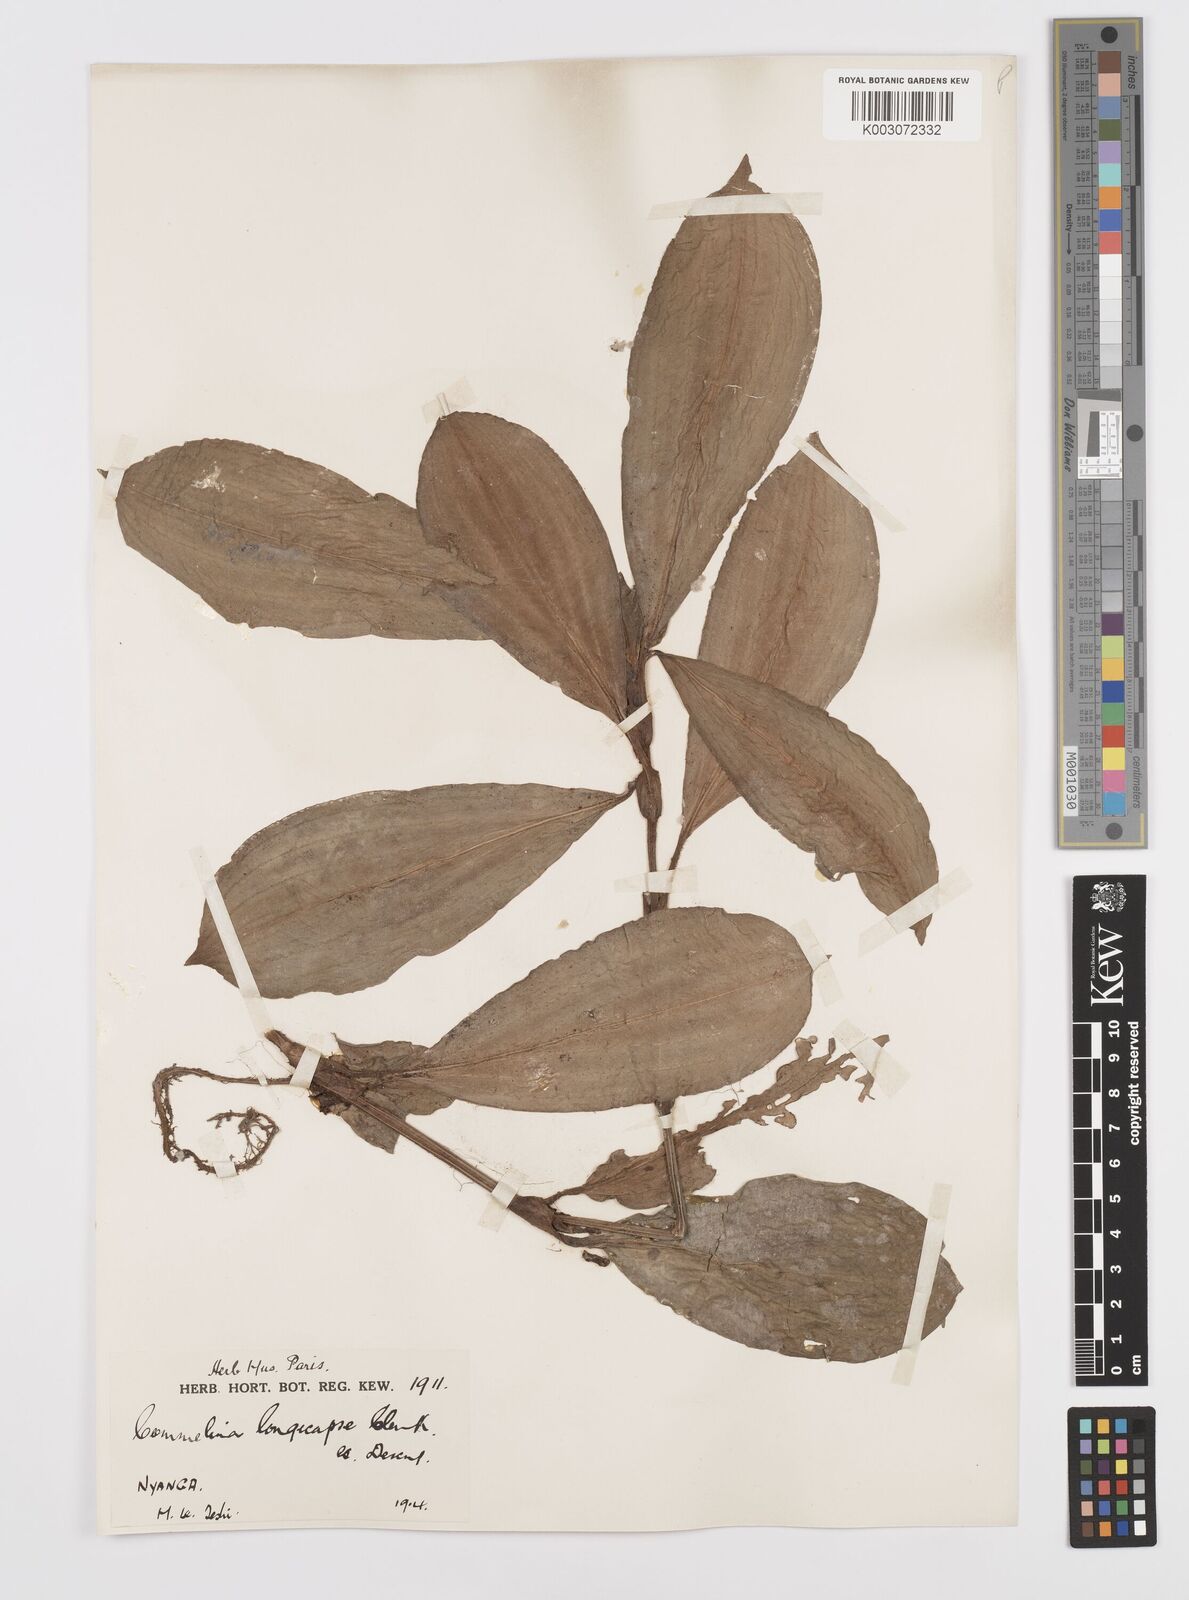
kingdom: Plantae
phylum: Tracheophyta
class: Liliopsida
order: Commelinales
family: Commelinaceae
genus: Commelina
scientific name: Commelina longicapsa
